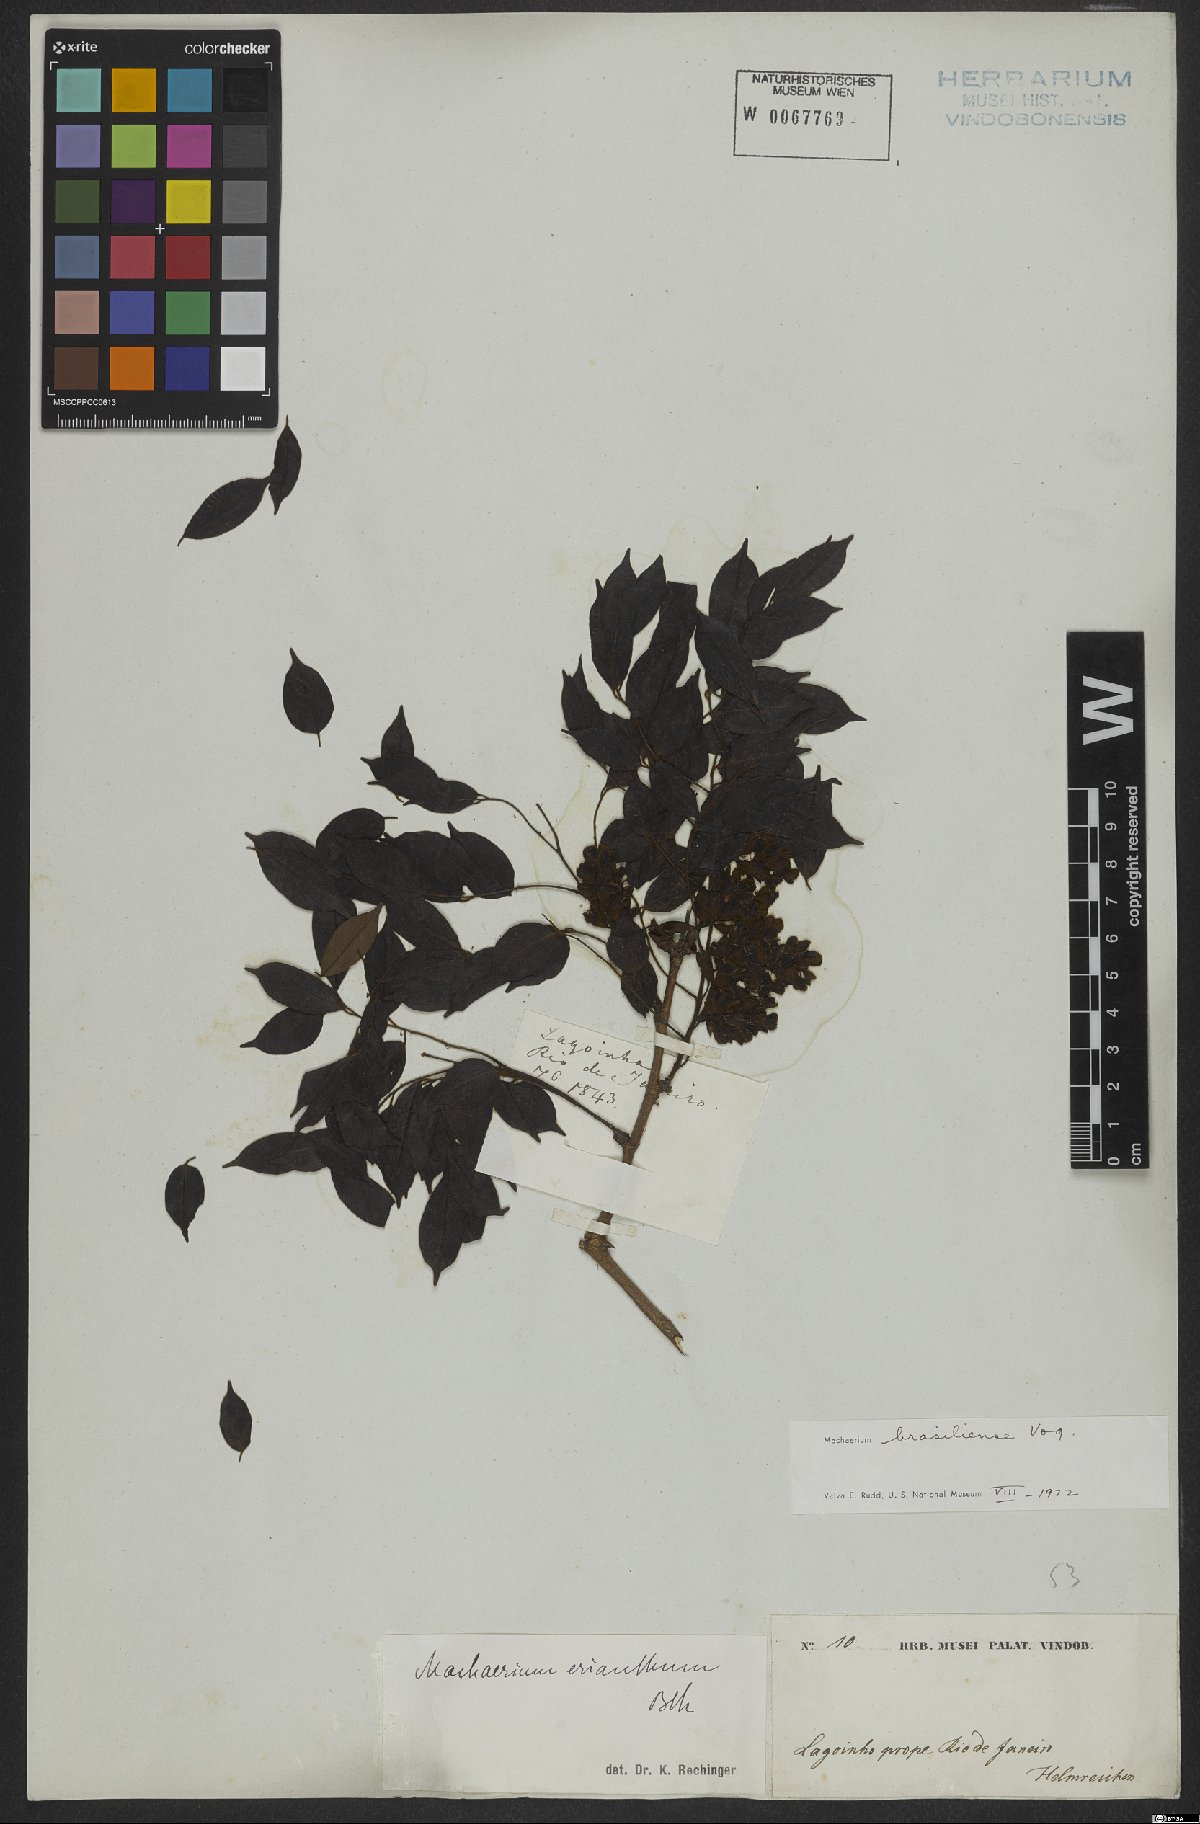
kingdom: Plantae
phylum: Tracheophyta
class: Magnoliopsida
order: Fabales
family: Fabaceae
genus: Machaerium
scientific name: Machaerium brasiliense
